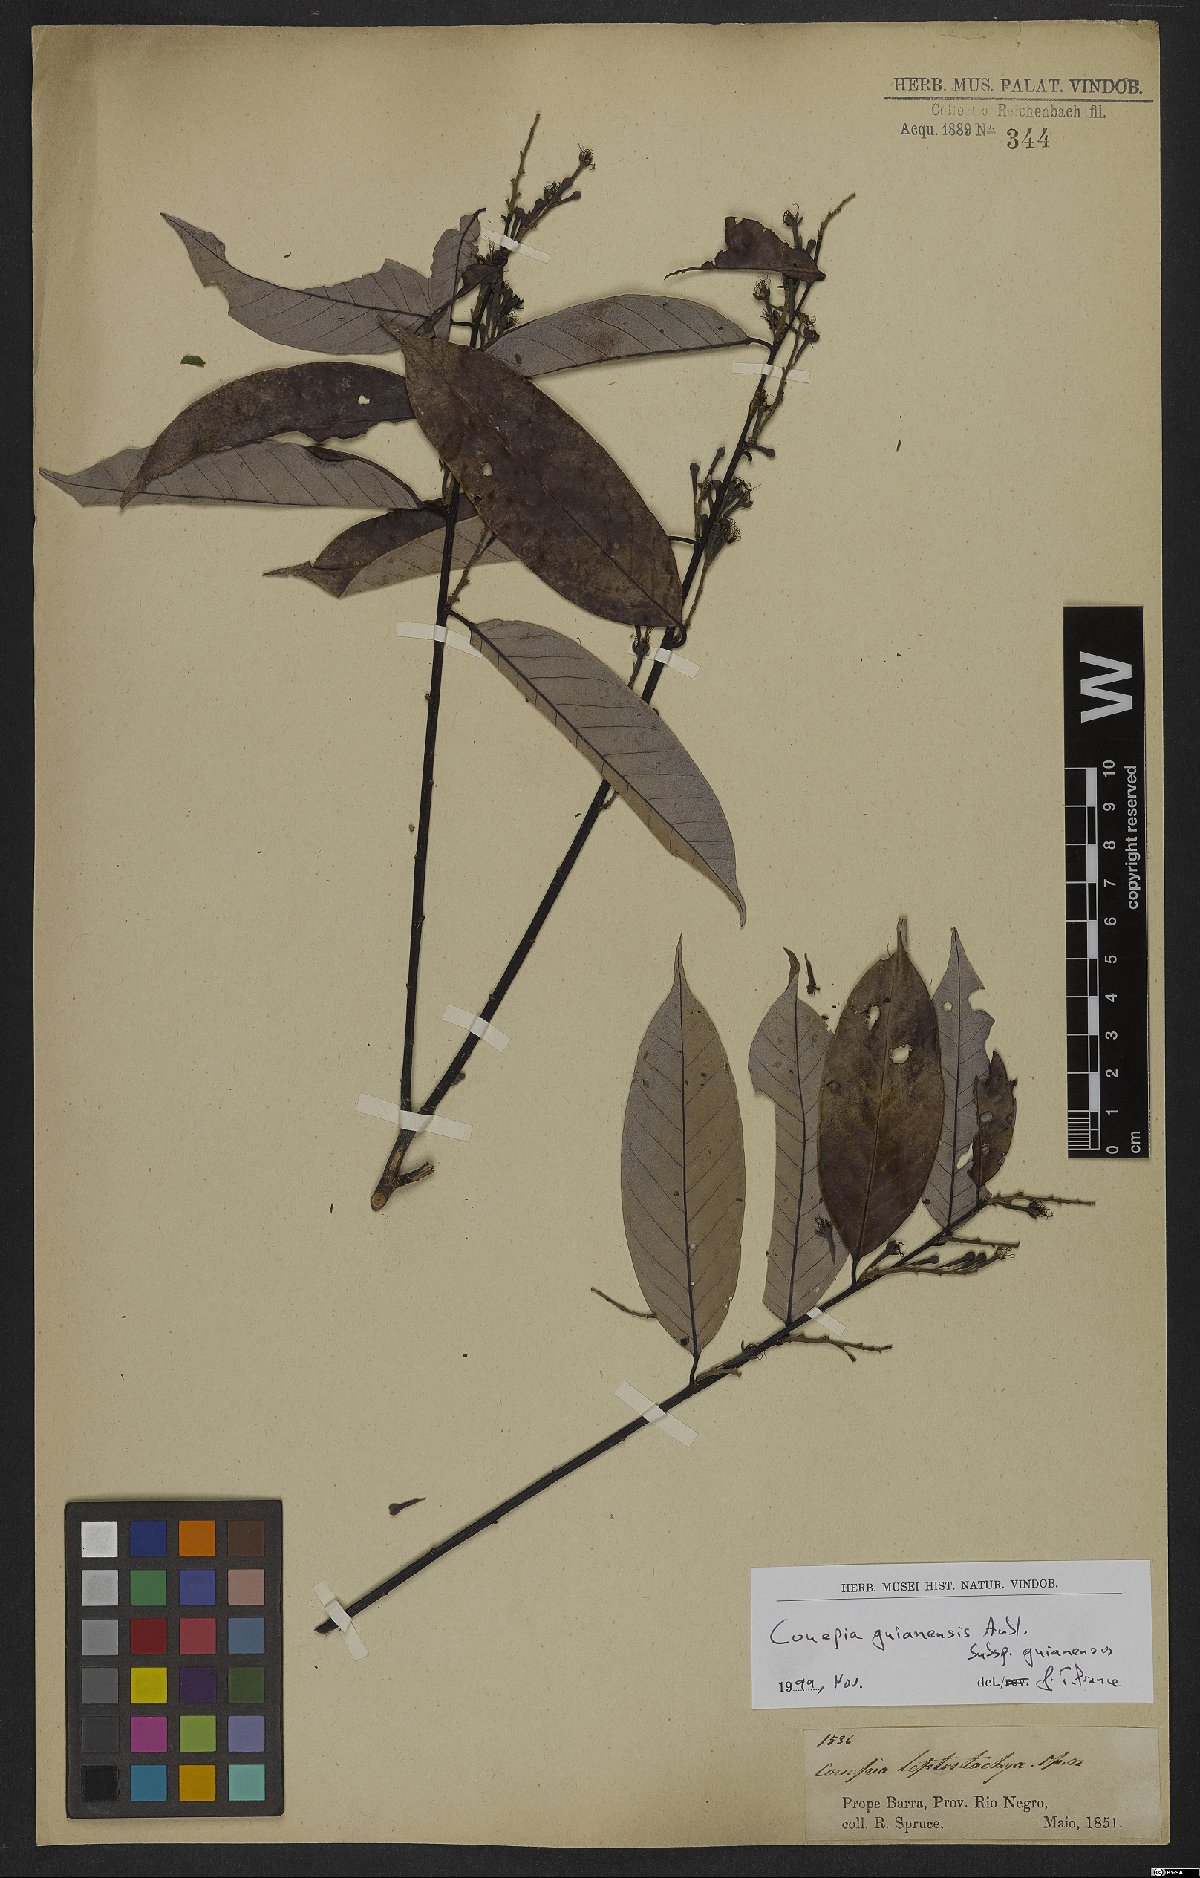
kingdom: Plantae
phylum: Tracheophyta
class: Magnoliopsida
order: Malpighiales
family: Chrysobalanaceae
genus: Couepia
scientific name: Couepia guianensis
